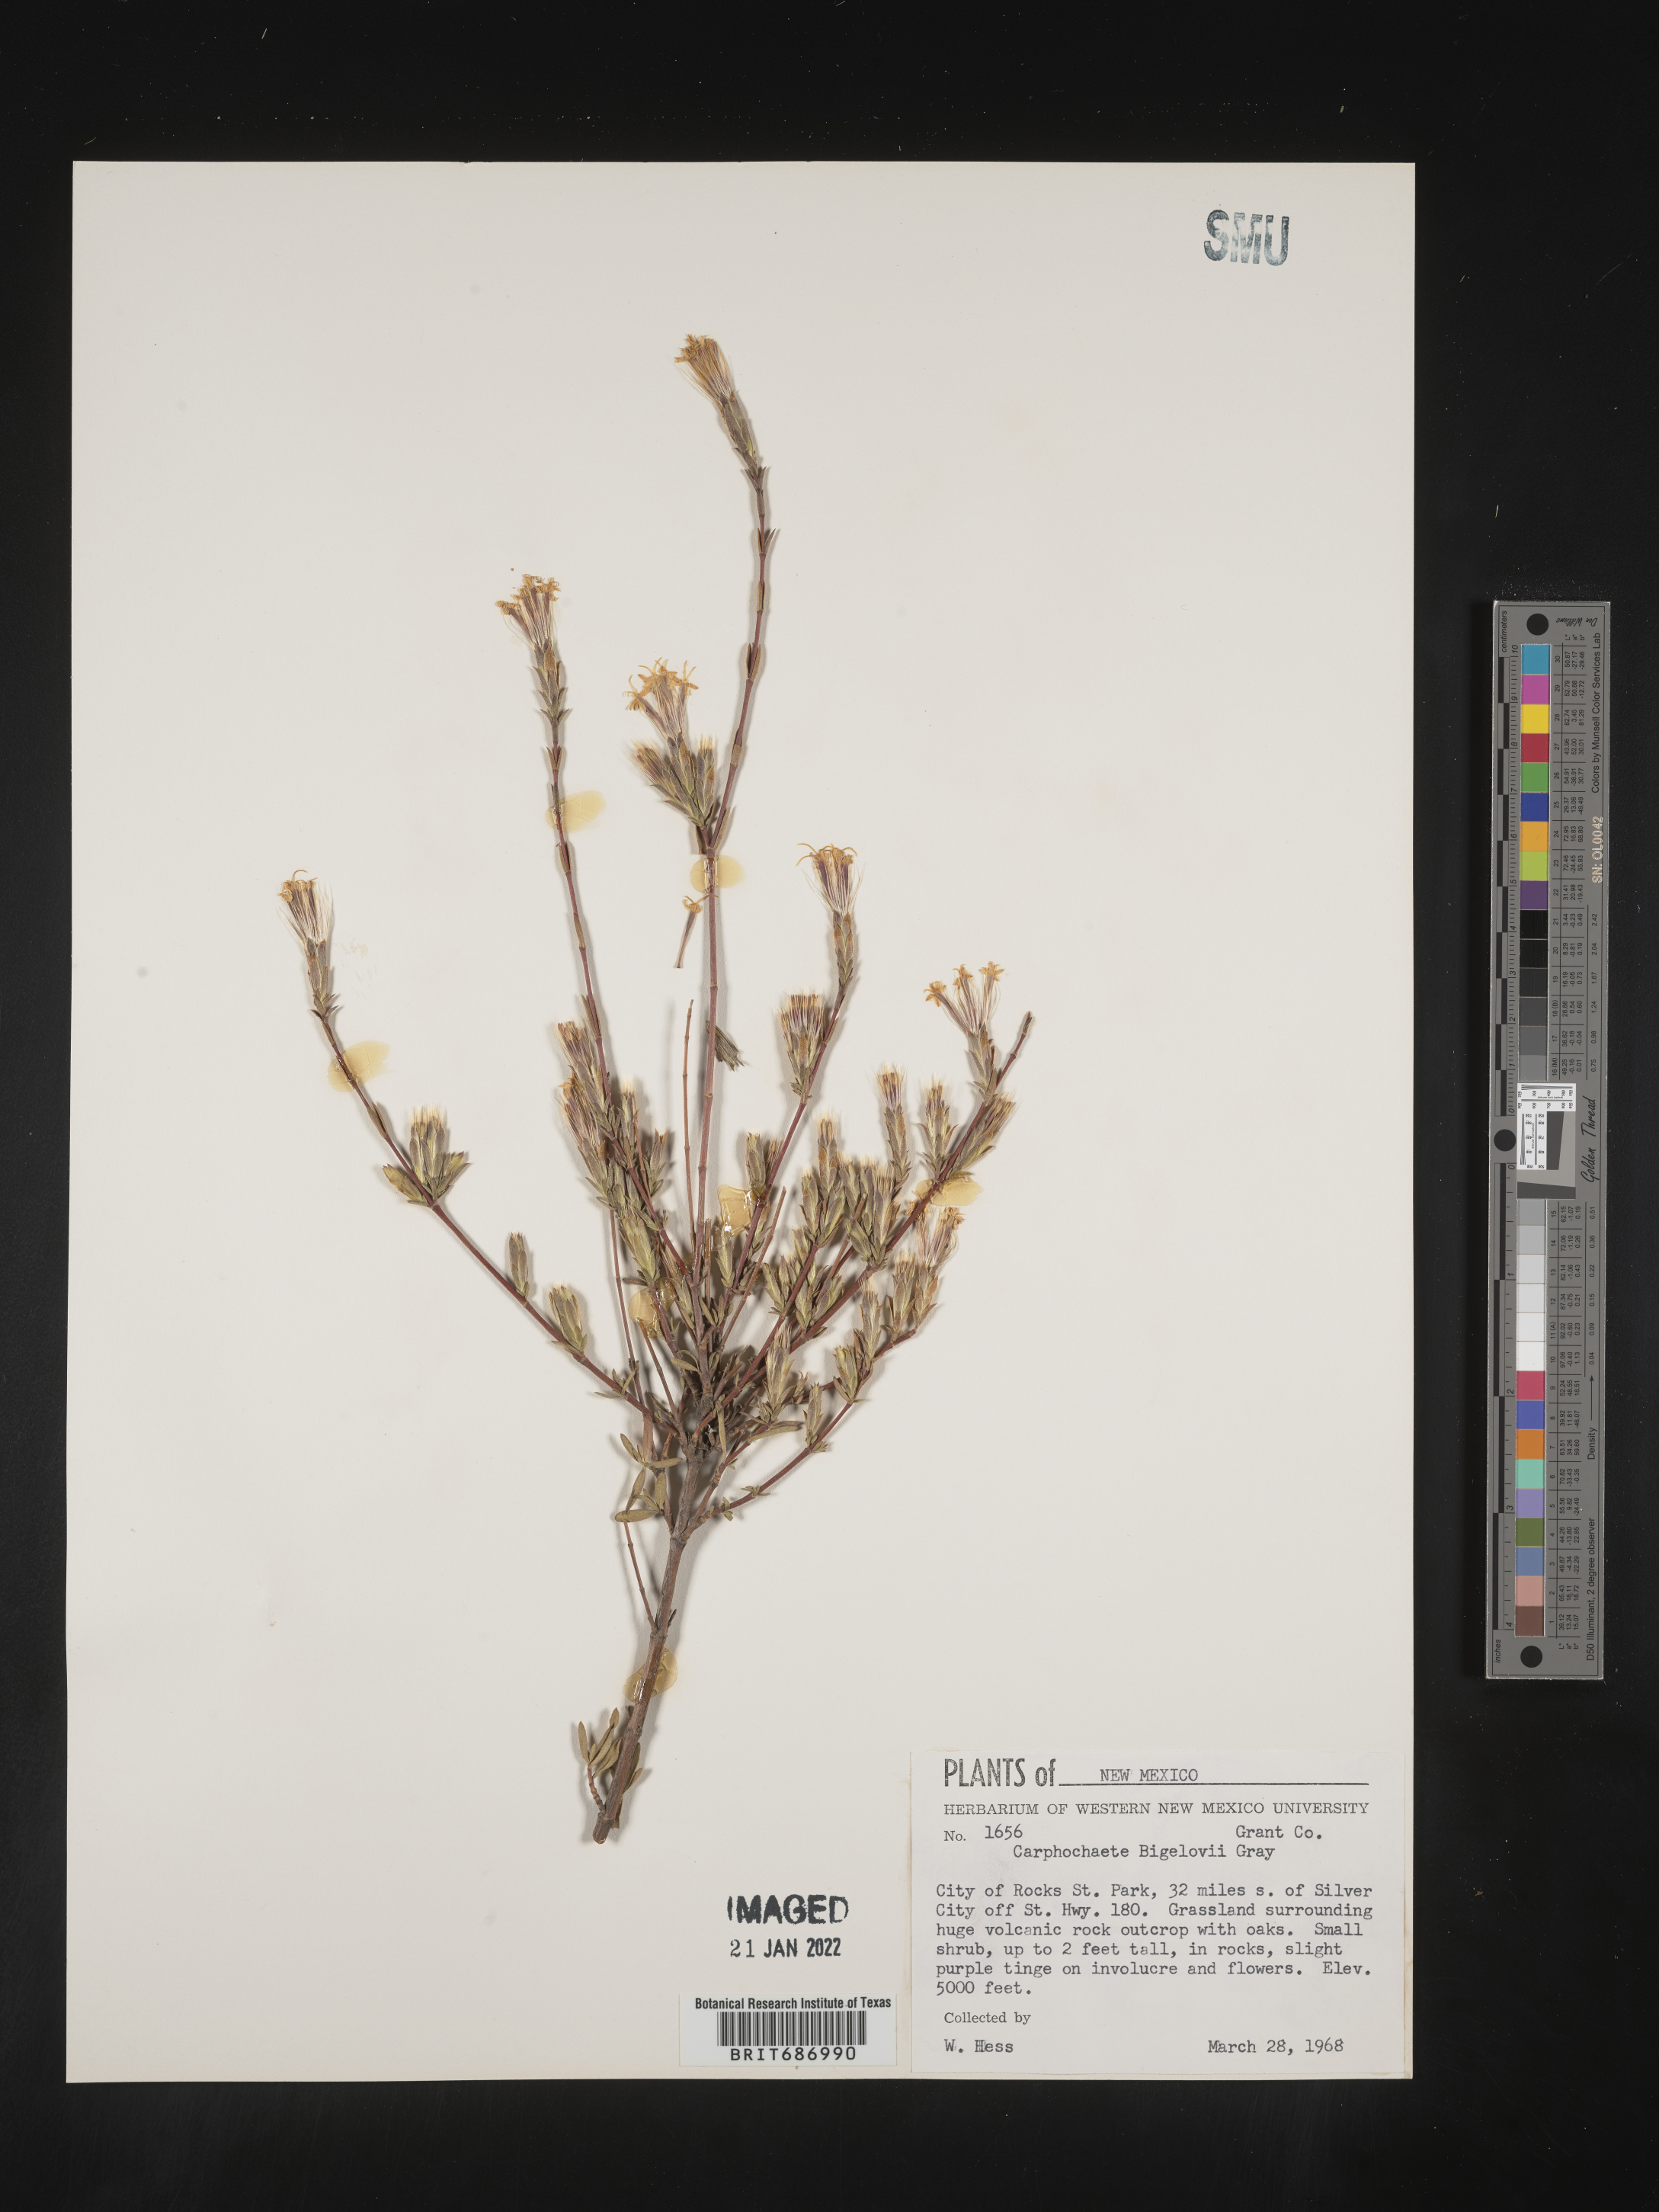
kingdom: Plantae
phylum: Tracheophyta
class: Magnoliopsida
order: Asterales
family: Asteraceae
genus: Carphochaete
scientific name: Carphochaete
